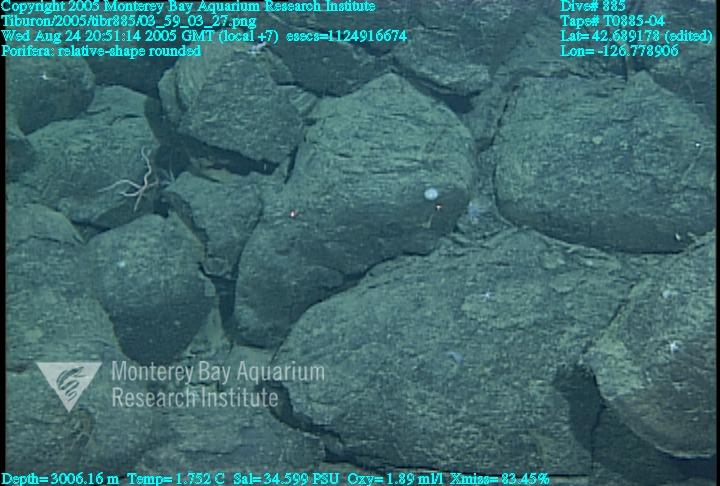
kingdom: Animalia
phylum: Porifera
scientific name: Porifera
